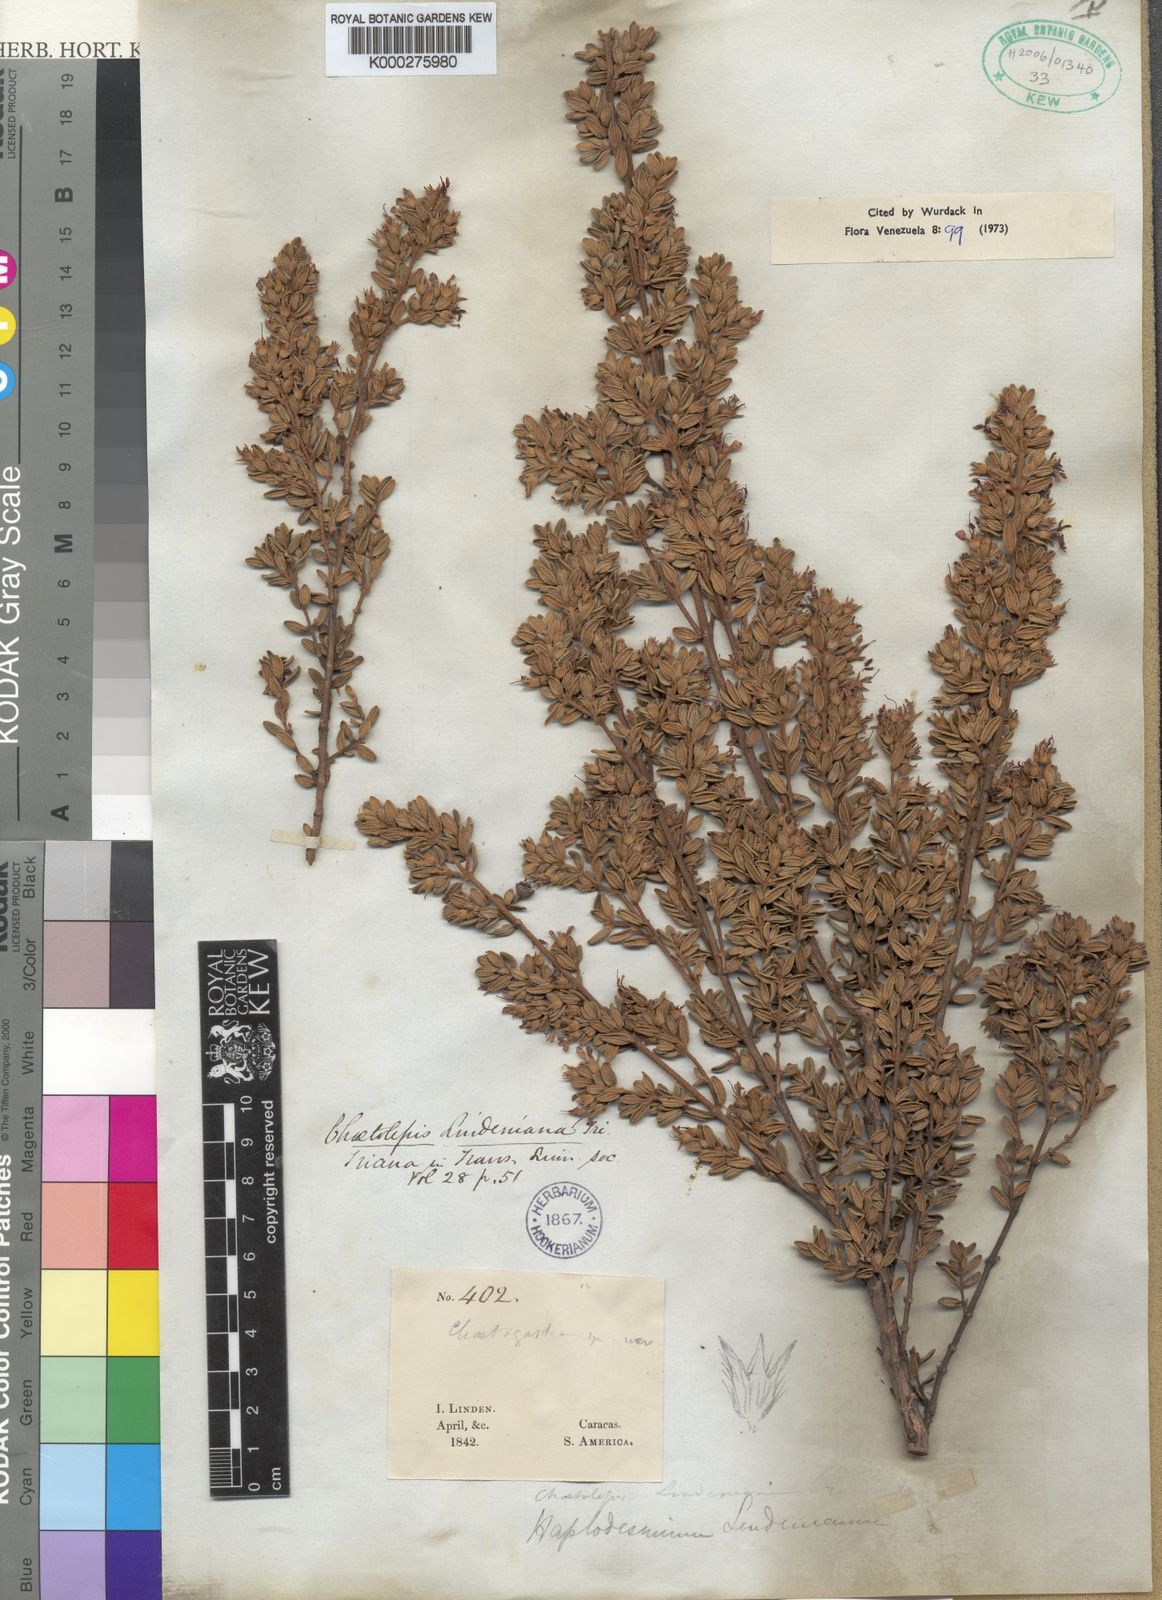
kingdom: Plantae
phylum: Tracheophyta
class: Magnoliopsida
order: Myrtales
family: Melastomataceae
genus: Chaetolepis
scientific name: Chaetolepis lindeniana
